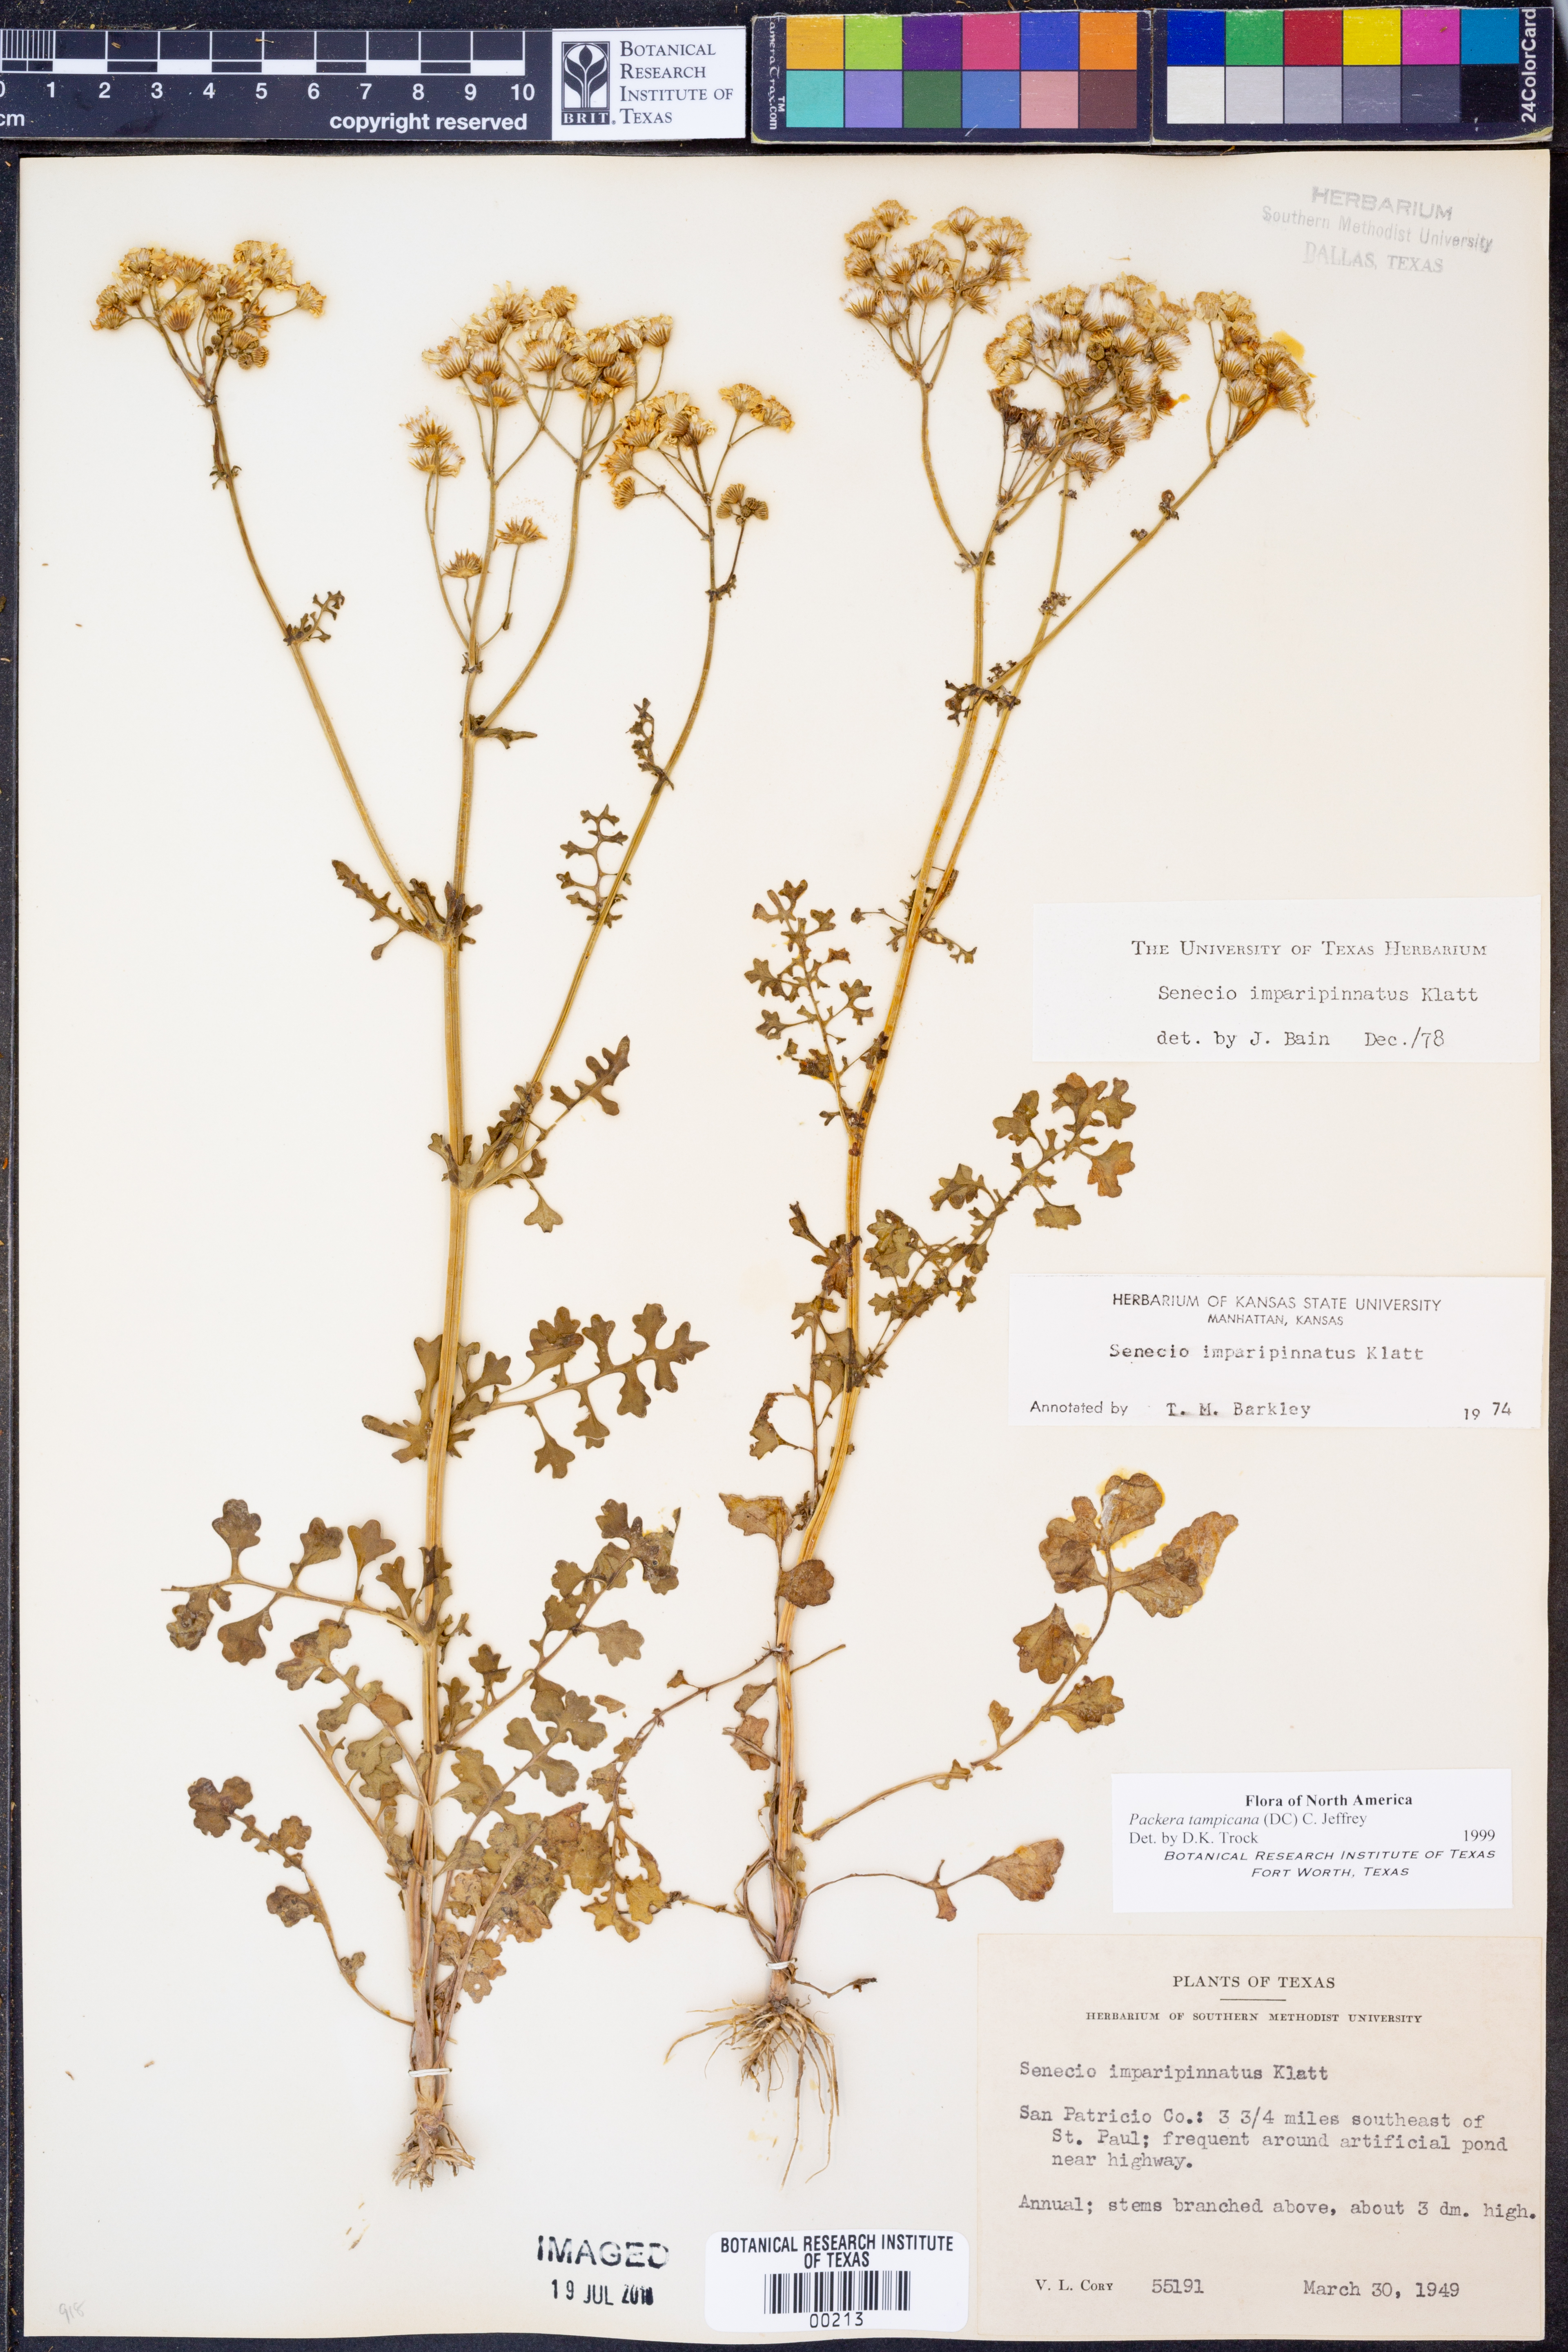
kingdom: Plantae
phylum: Tracheophyta
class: Magnoliopsida
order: Asterales
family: Asteraceae
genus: Packera
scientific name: Packera tampicana
